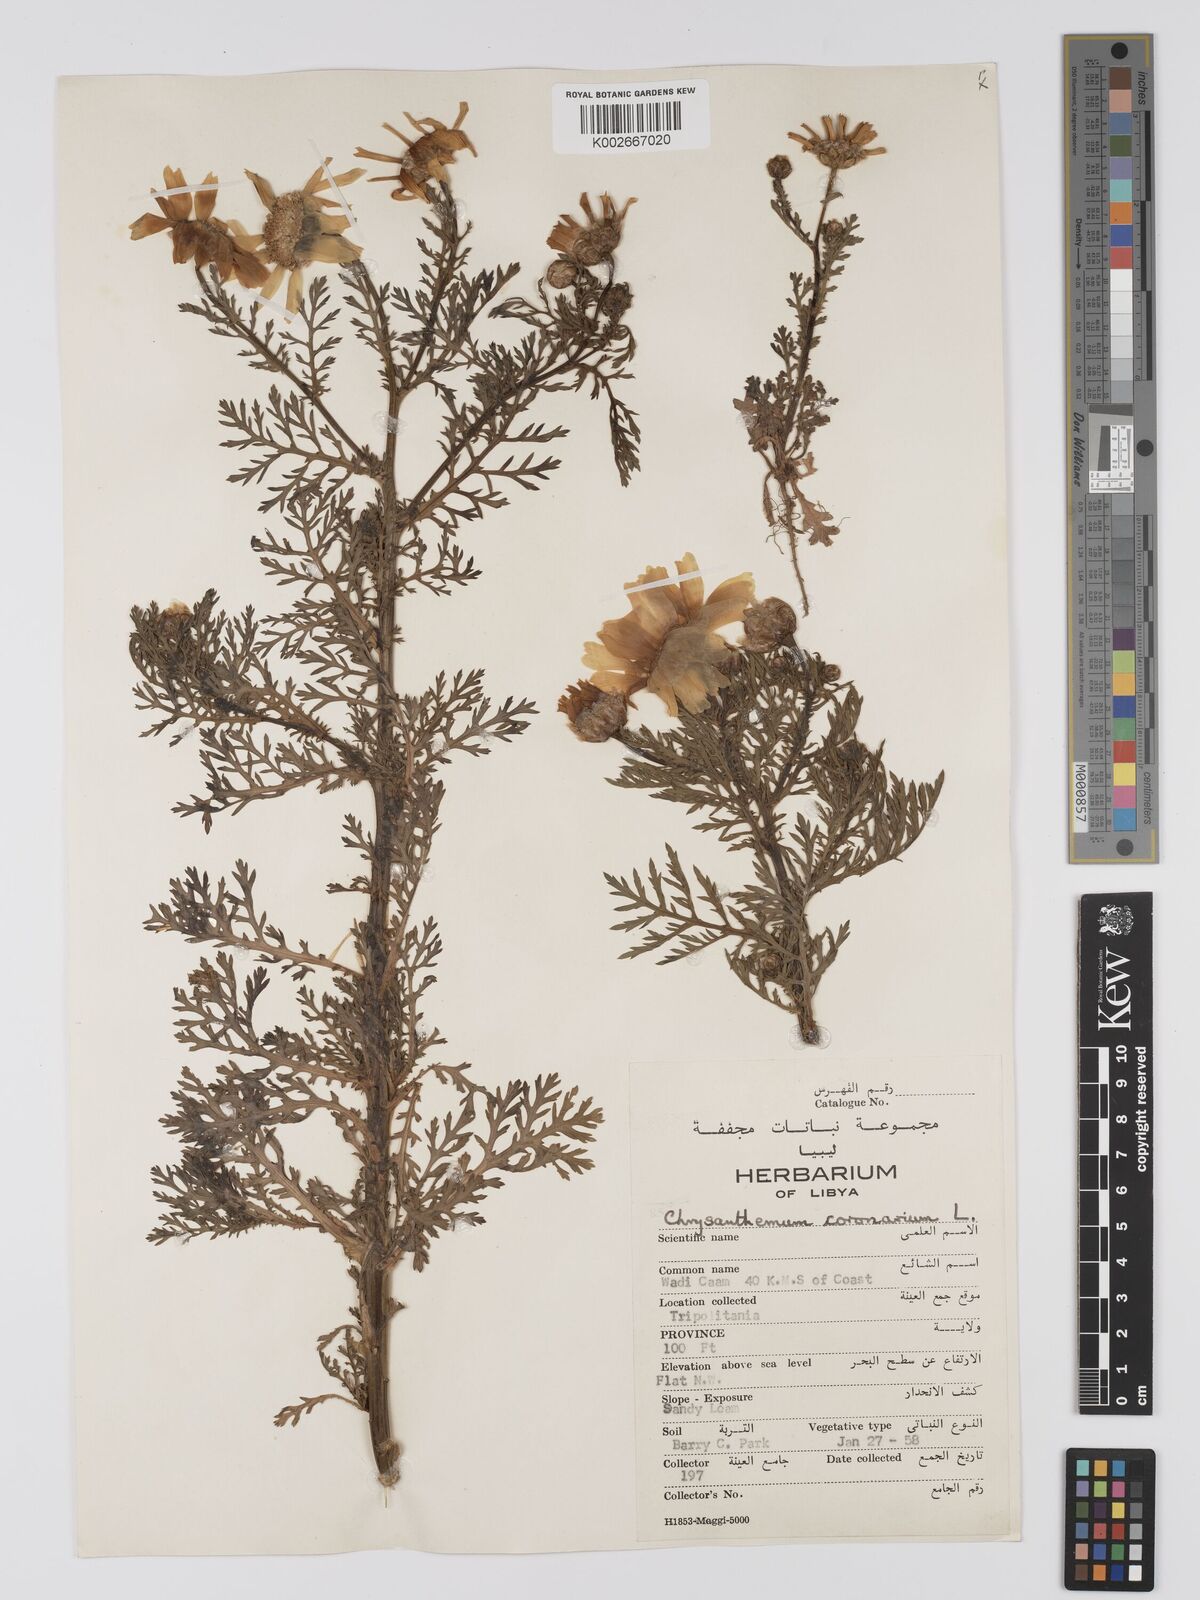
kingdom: Plantae
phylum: Tracheophyta
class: Magnoliopsida
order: Asterales
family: Asteraceae
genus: Glebionis
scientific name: Glebionis coronaria
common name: Crowndaisy
